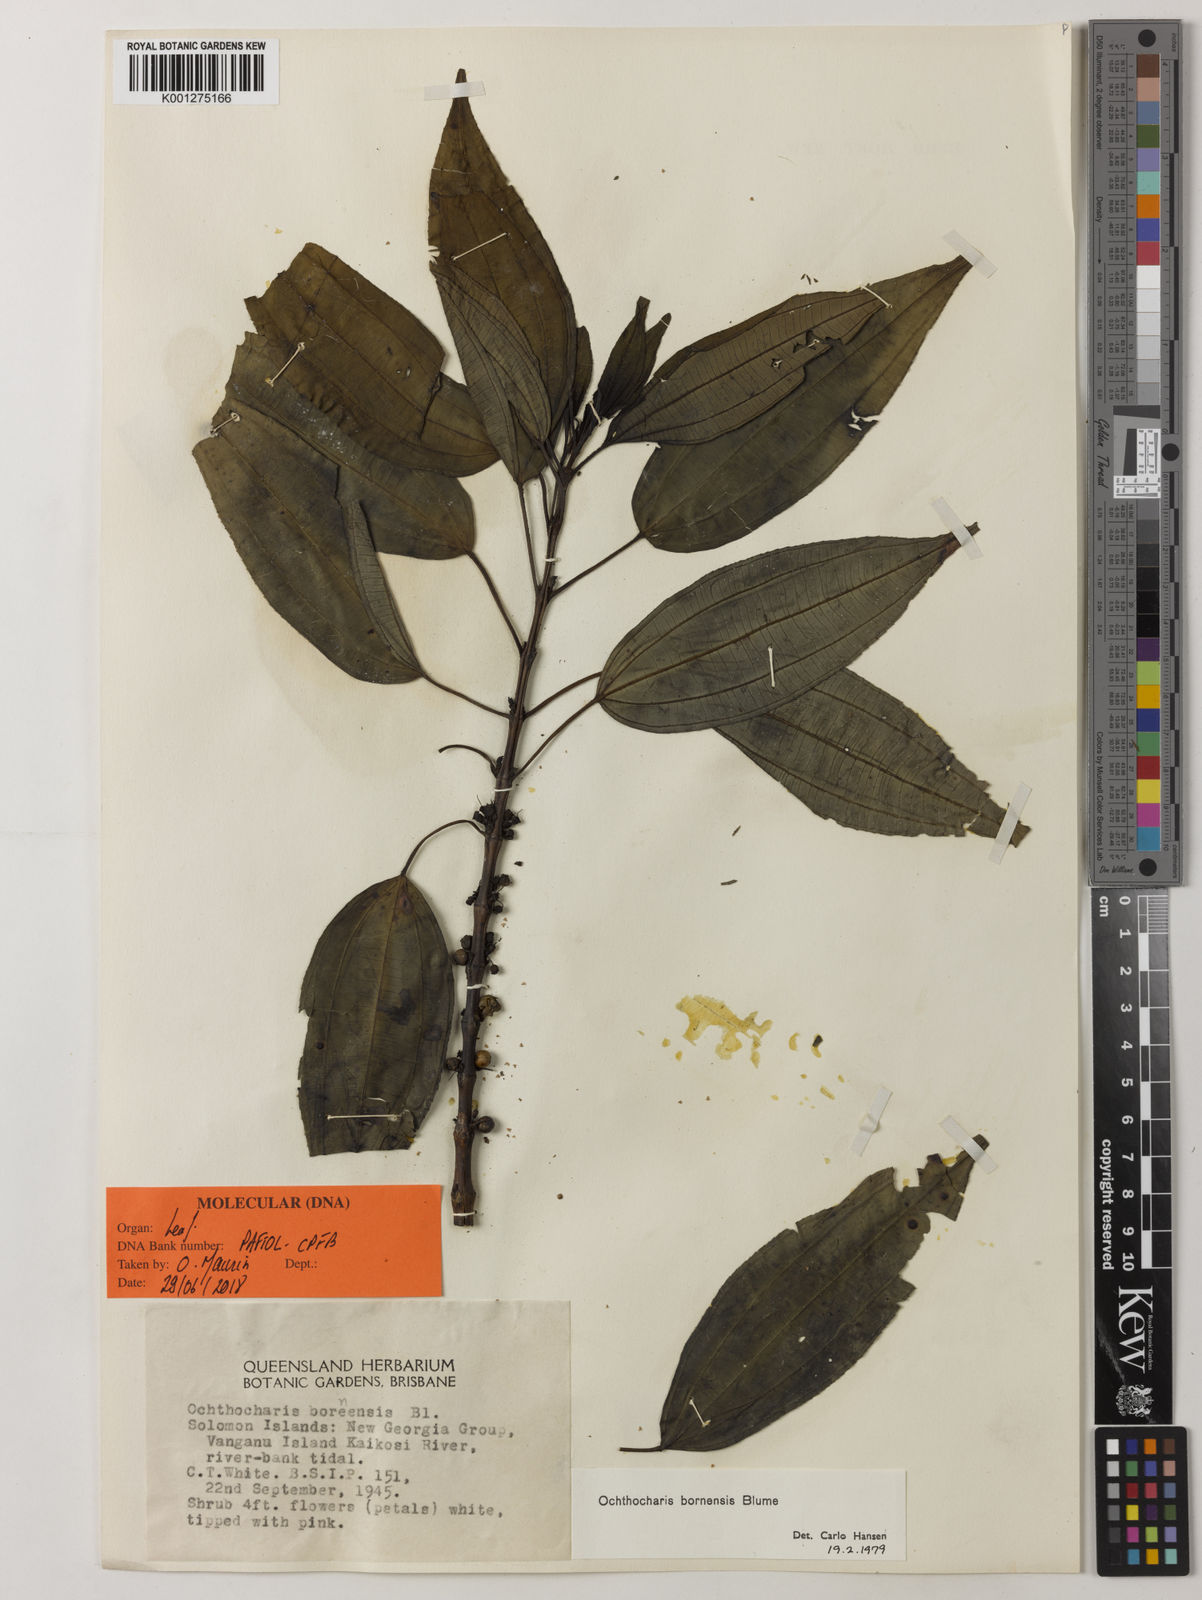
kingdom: Plantae
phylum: Tracheophyta
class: Magnoliopsida
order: Myrtales
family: Melastomataceae
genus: Ochthocharis
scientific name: Ochthocharis bornensis
